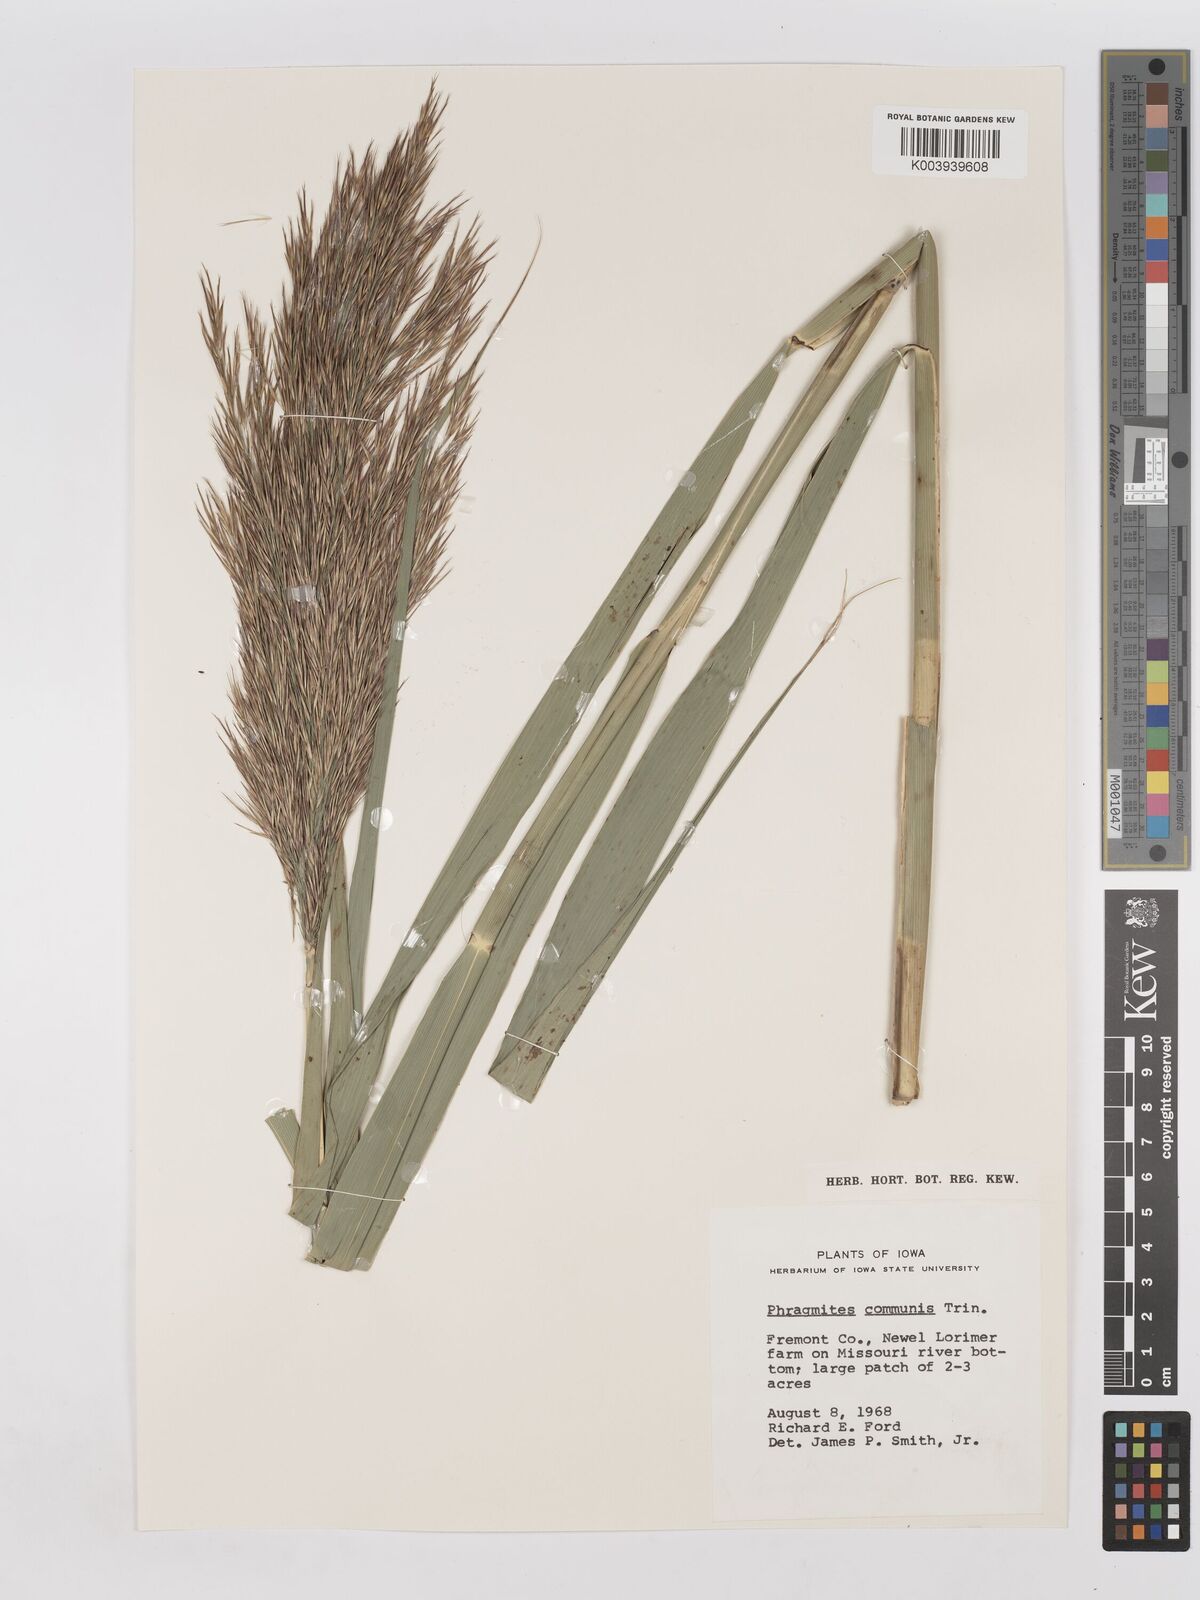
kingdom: Plantae
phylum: Tracheophyta
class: Liliopsida
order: Poales
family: Poaceae
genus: Phragmites
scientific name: Phragmites australis
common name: Common reed
